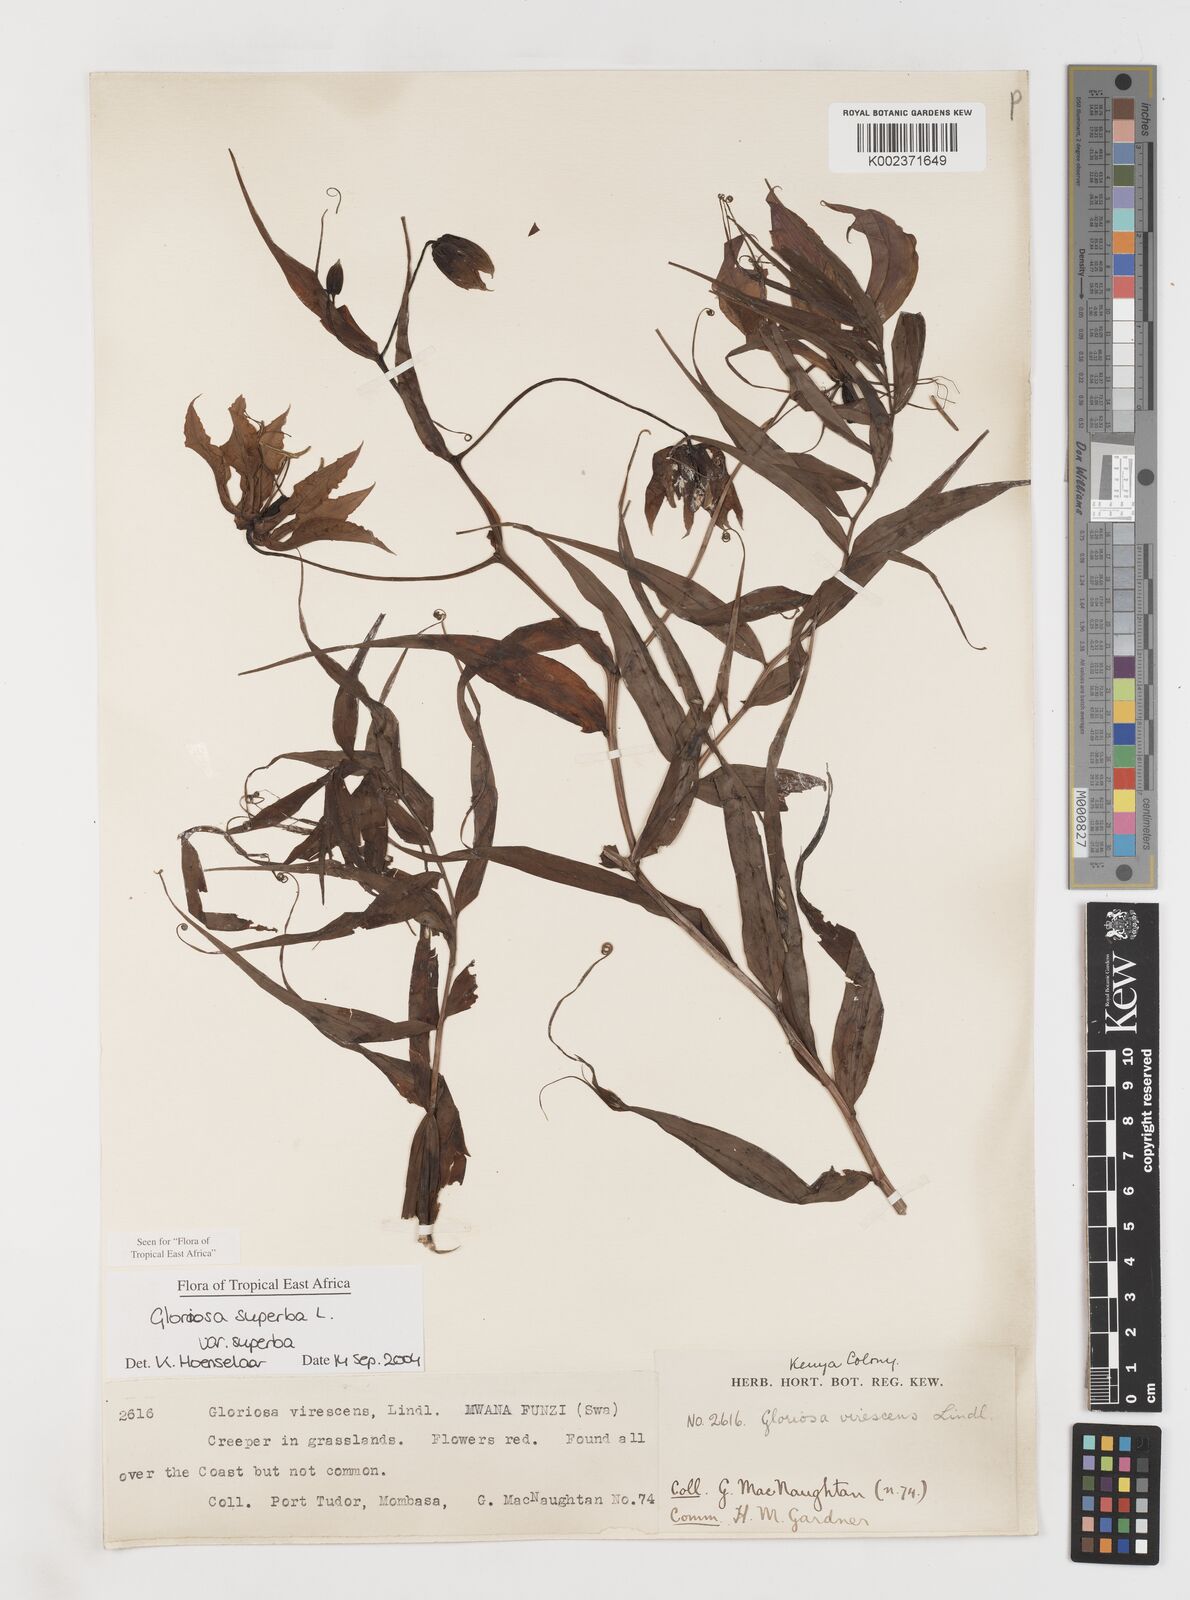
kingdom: Plantae
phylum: Tracheophyta
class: Liliopsida
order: Liliales
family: Colchicaceae
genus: Gloriosa
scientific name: Gloriosa simplex
